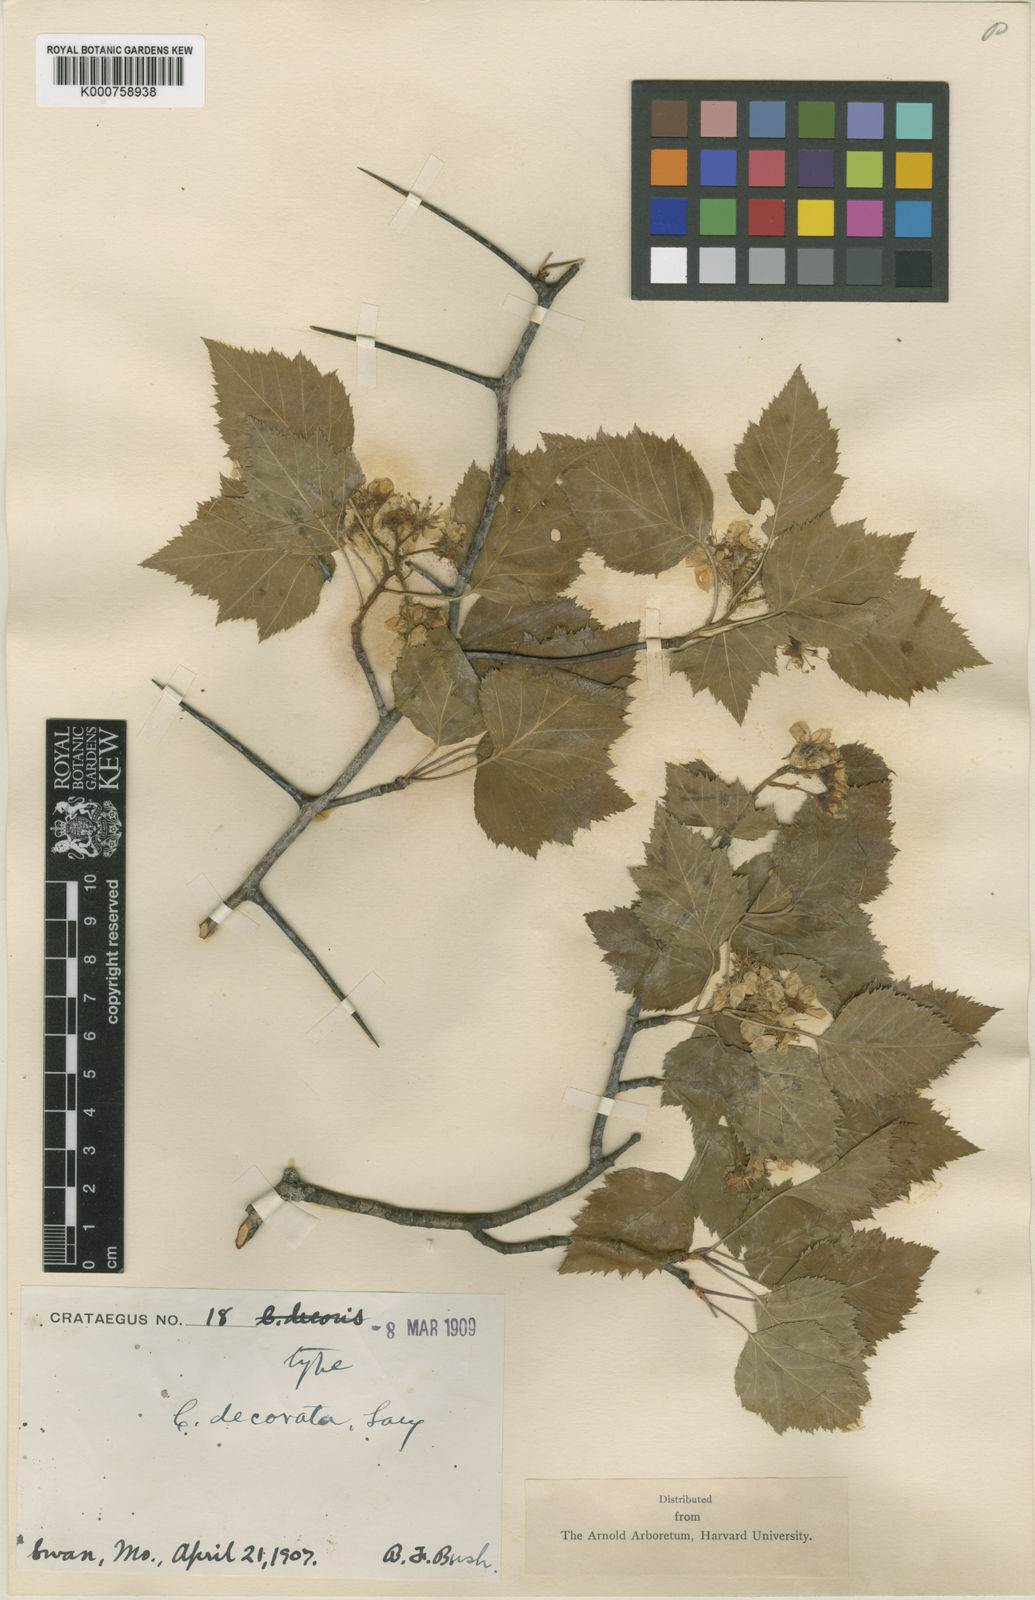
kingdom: Plantae
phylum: Tracheophyta
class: Magnoliopsida
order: Rosales
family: Rosaceae
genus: Crataegus
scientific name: Crataegus decorata
